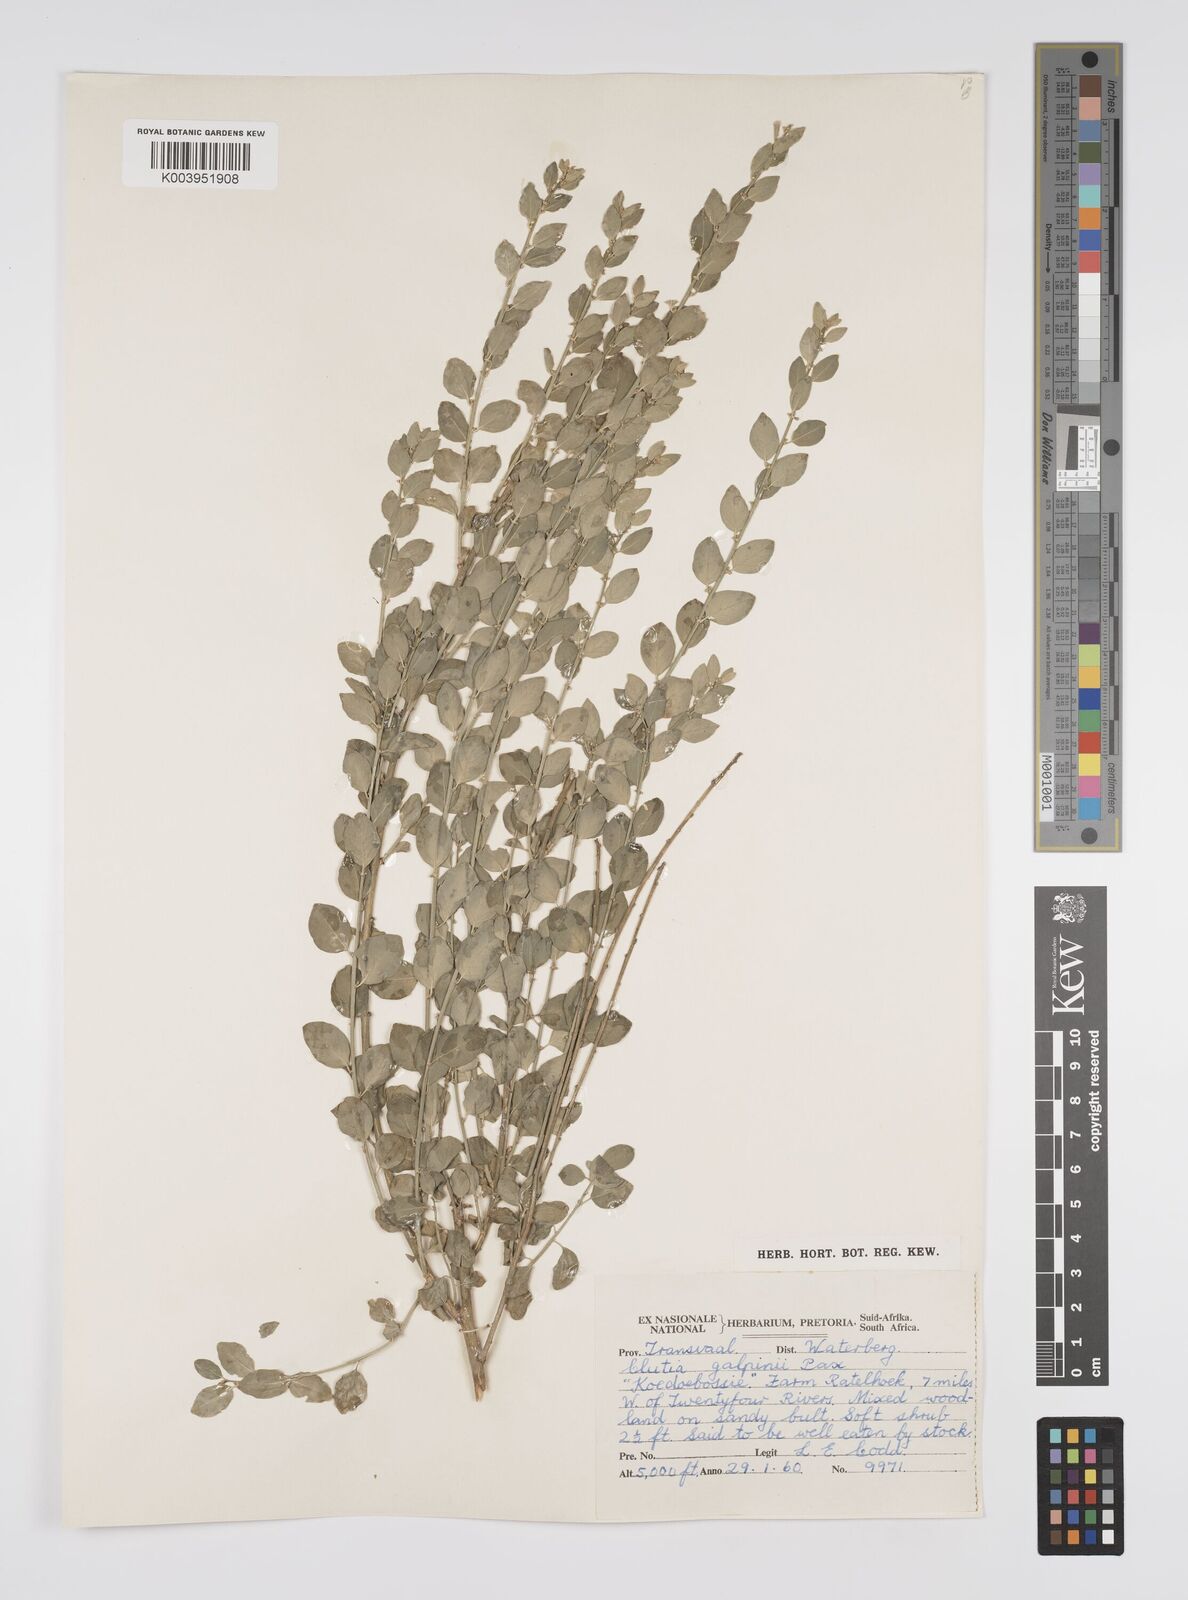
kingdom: Plantae
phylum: Tracheophyta
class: Magnoliopsida
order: Malpighiales
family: Peraceae
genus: Clutia
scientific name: Clutia galpinii
